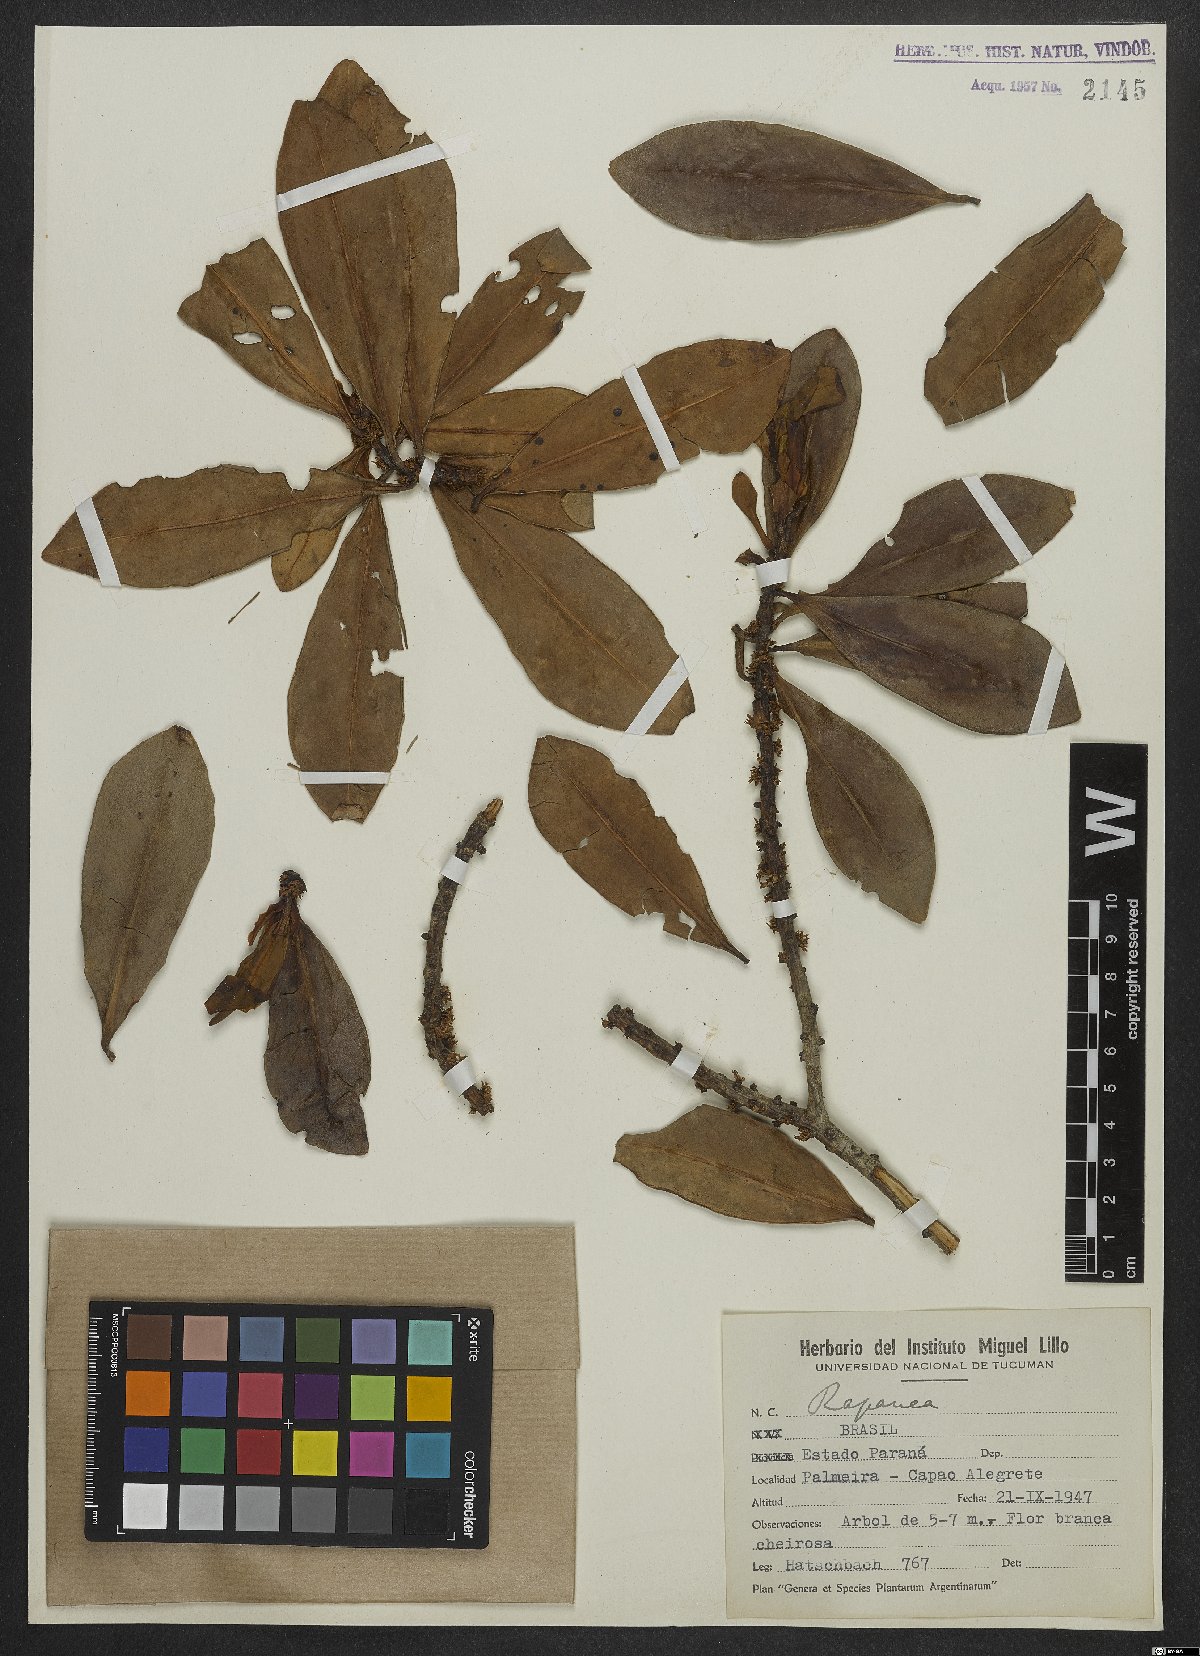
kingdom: Plantae
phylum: Tracheophyta
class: Magnoliopsida
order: Ericales
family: Primulaceae
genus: Myrsine
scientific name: Myrsine
